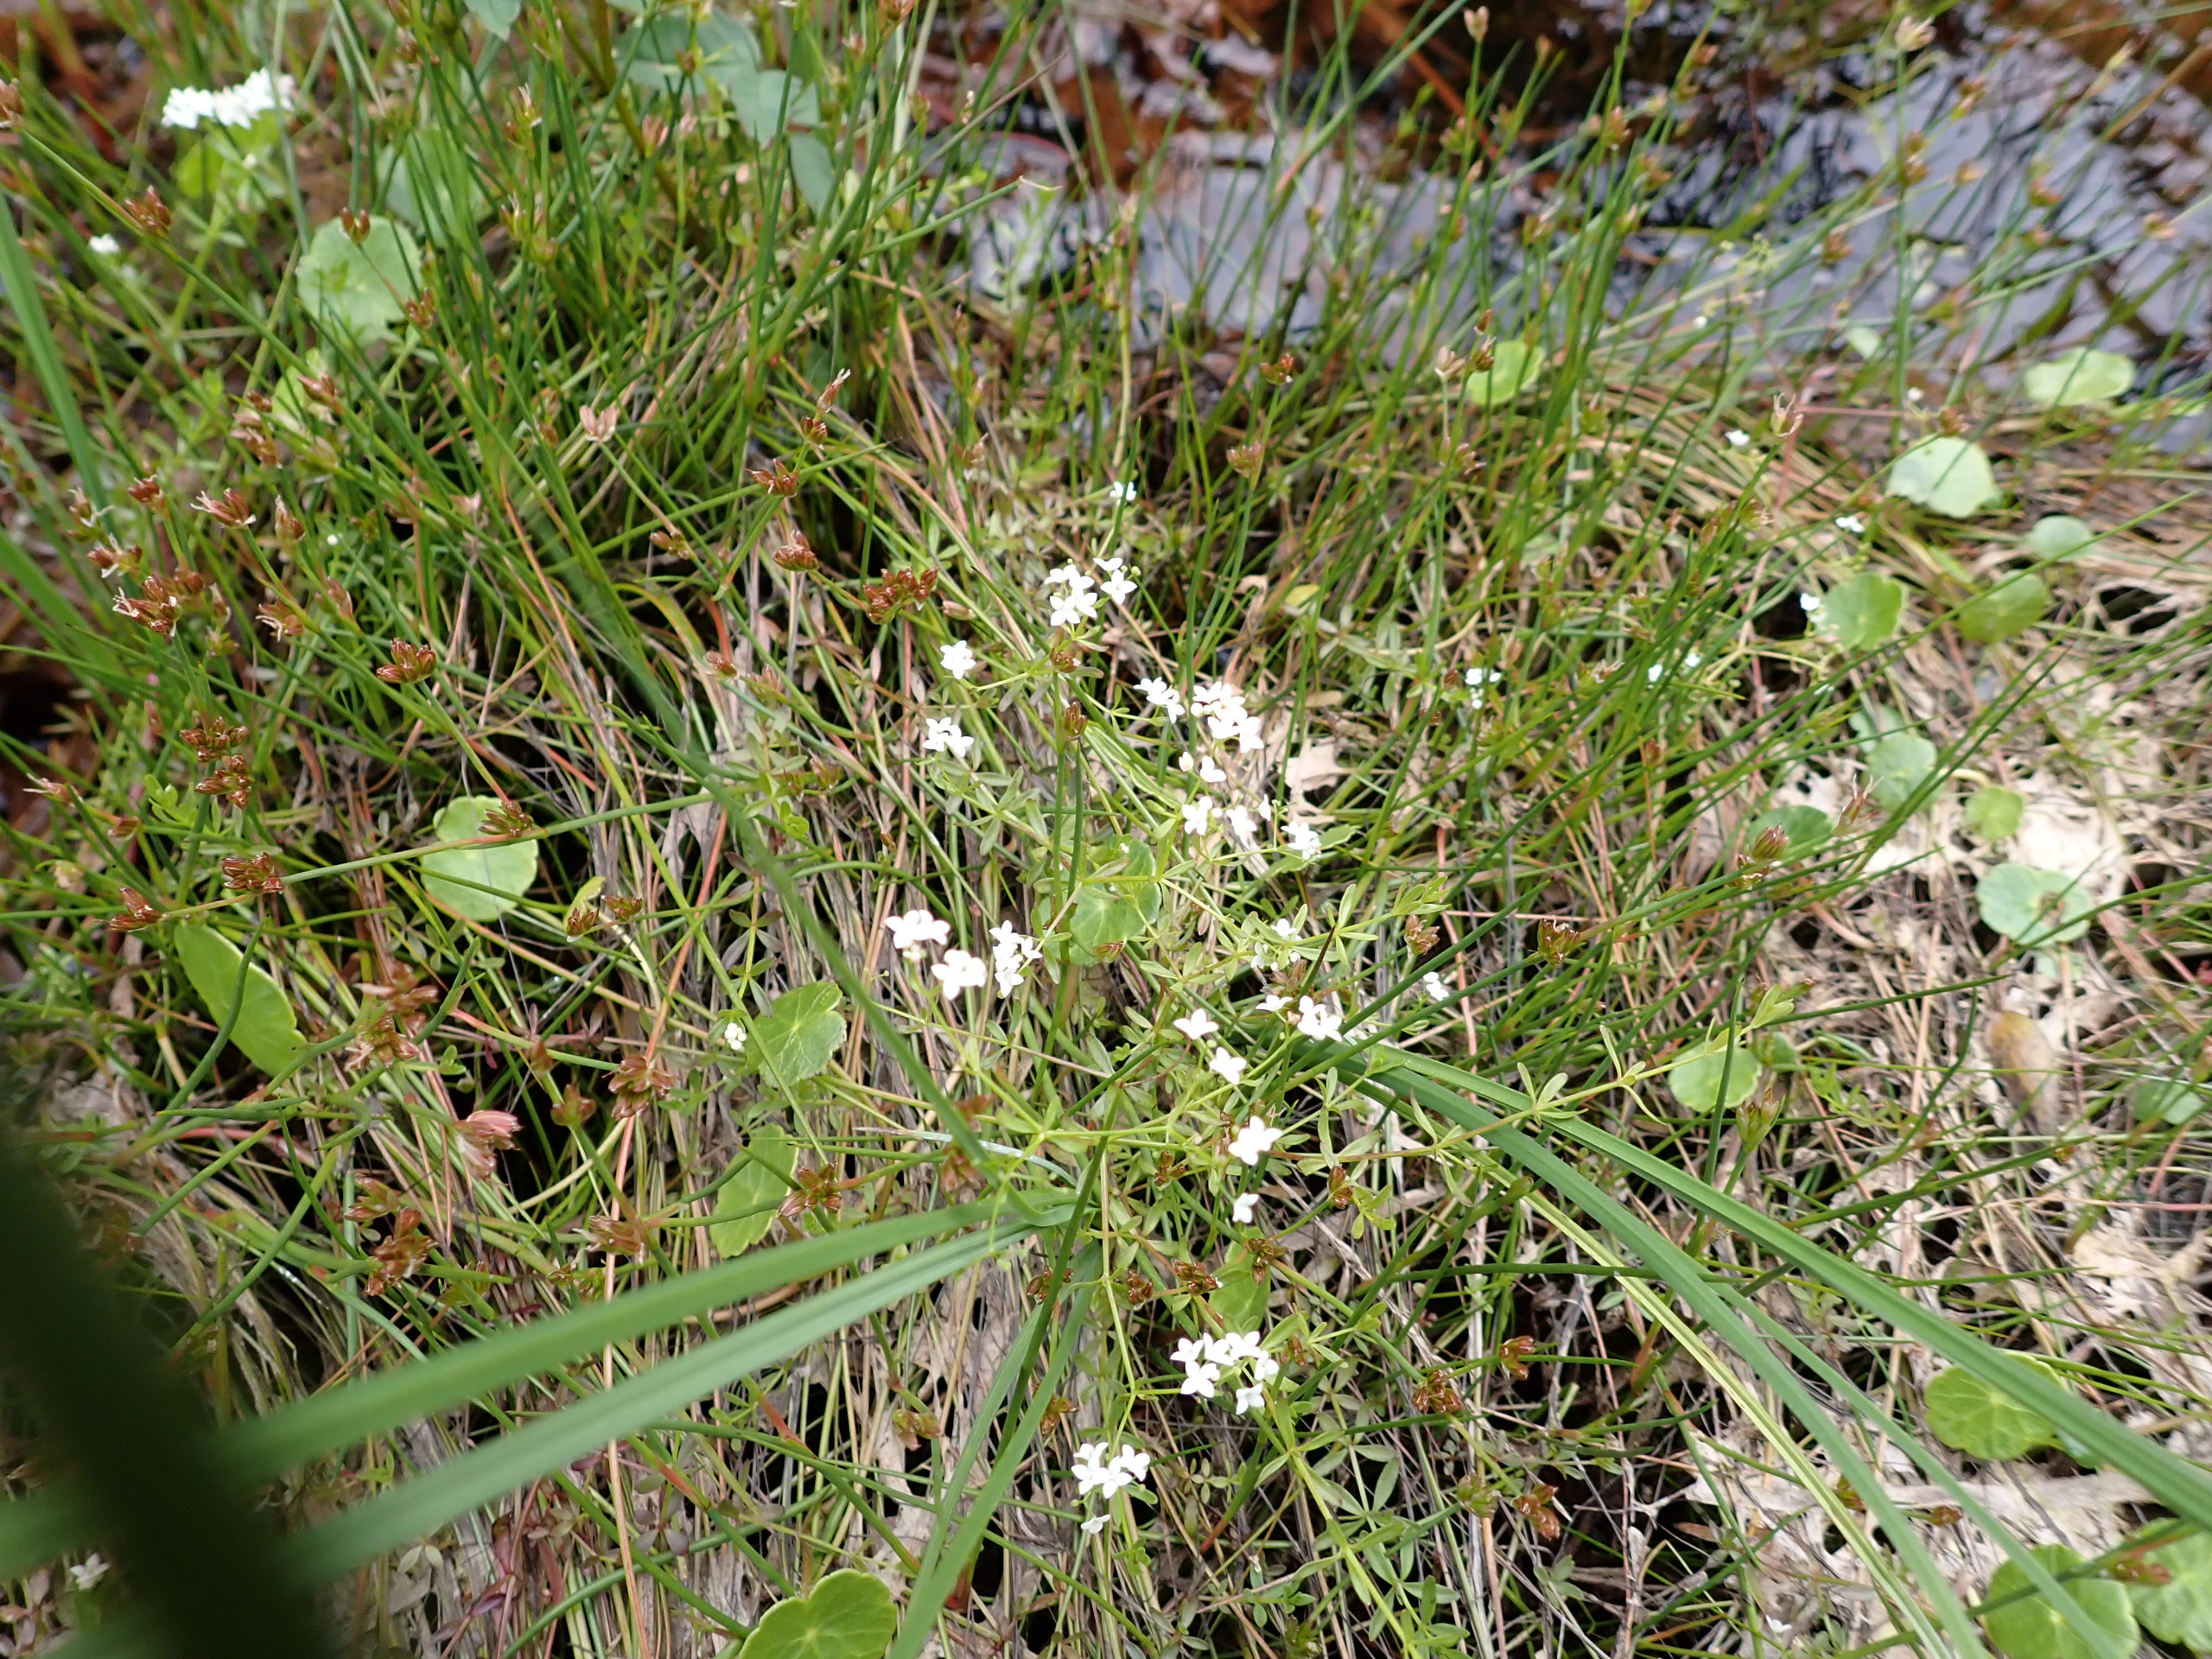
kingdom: Plantae
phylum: Tracheophyta
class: Magnoliopsida
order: Gentianales
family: Rubiaceae
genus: Galium
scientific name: Galium palustre
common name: Kær-snerre
